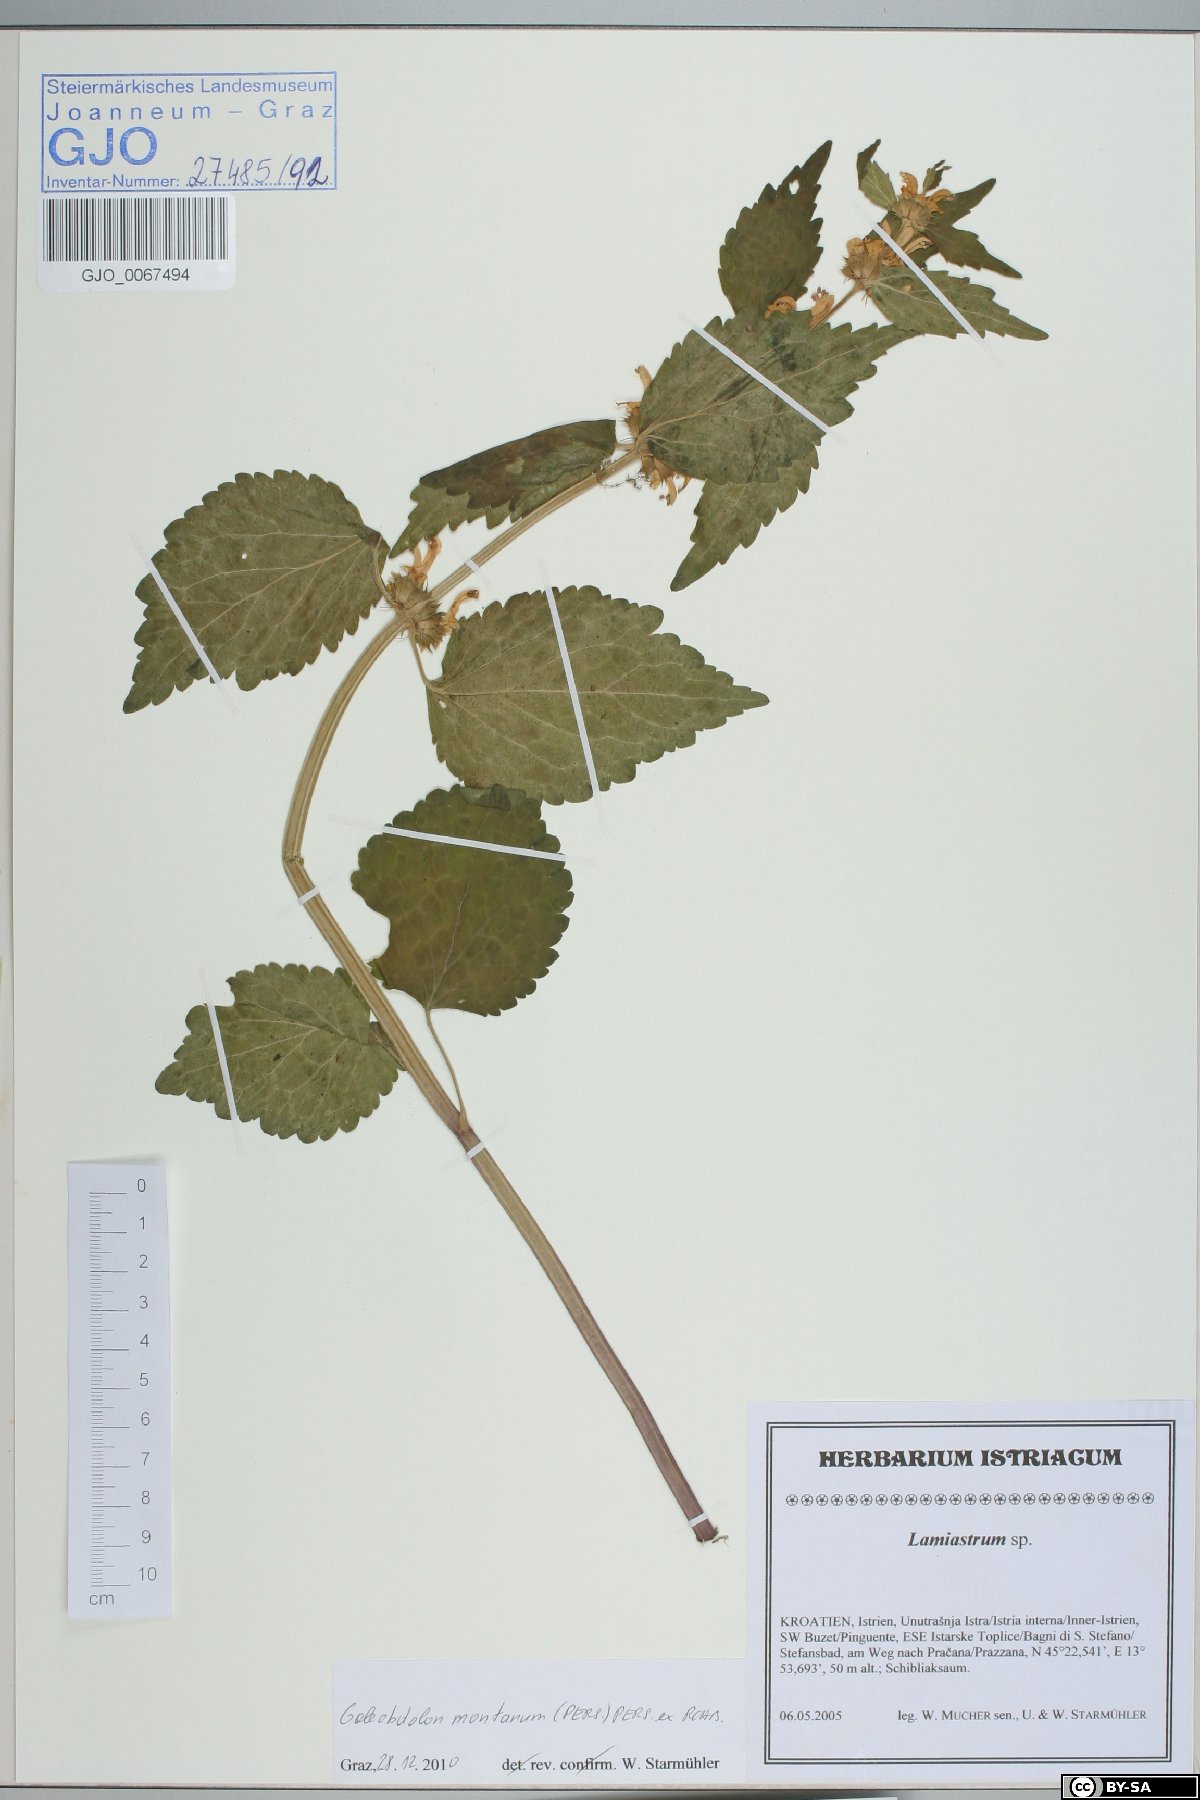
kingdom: Plantae
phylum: Tracheophyta
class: Magnoliopsida
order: Lamiales
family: Lamiaceae
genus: Lamium
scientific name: Lamium galeobdolon
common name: Yellow archangel
